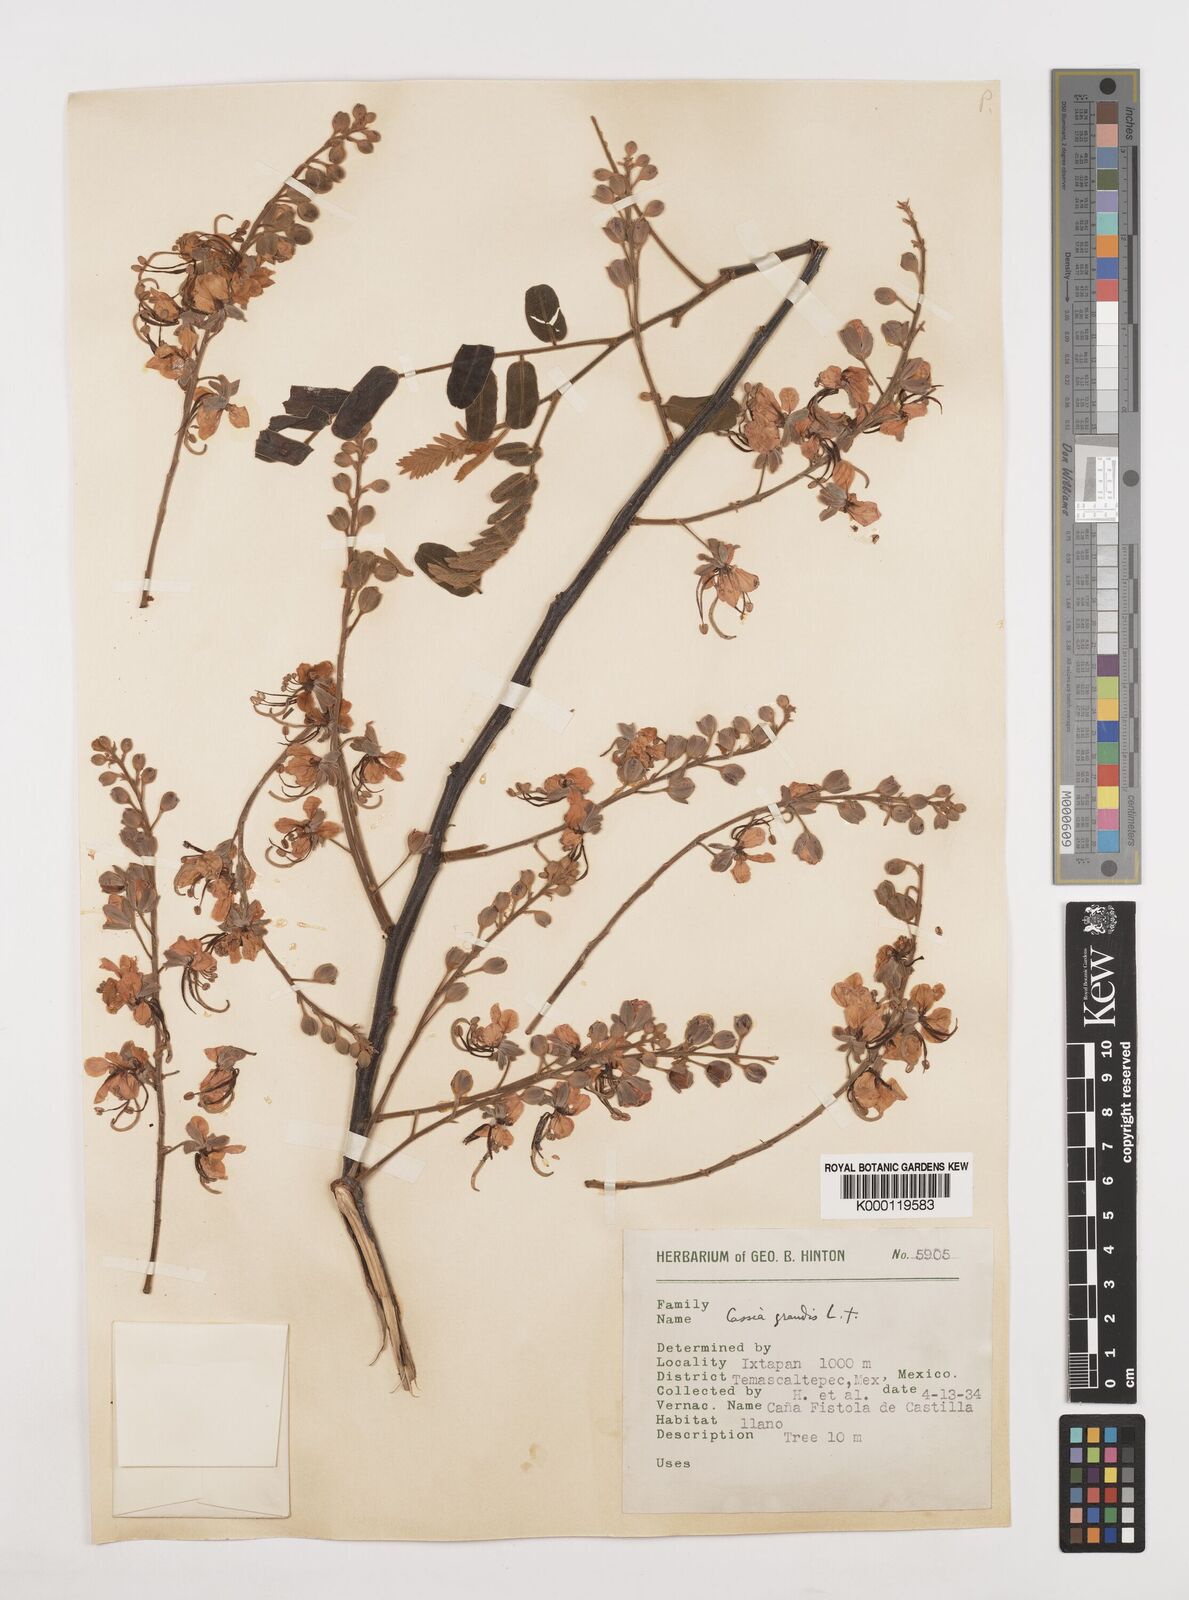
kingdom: Plantae
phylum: Tracheophyta
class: Magnoliopsida
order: Fabales
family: Fabaceae
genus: Cassia
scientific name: Cassia grandis
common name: Appleblossom cassia
